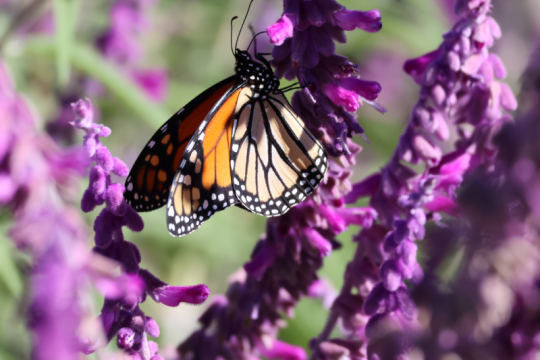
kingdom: Animalia
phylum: Arthropoda
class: Insecta
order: Lepidoptera
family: Nymphalidae
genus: Danaus
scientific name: Danaus plexippus
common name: Monarch
